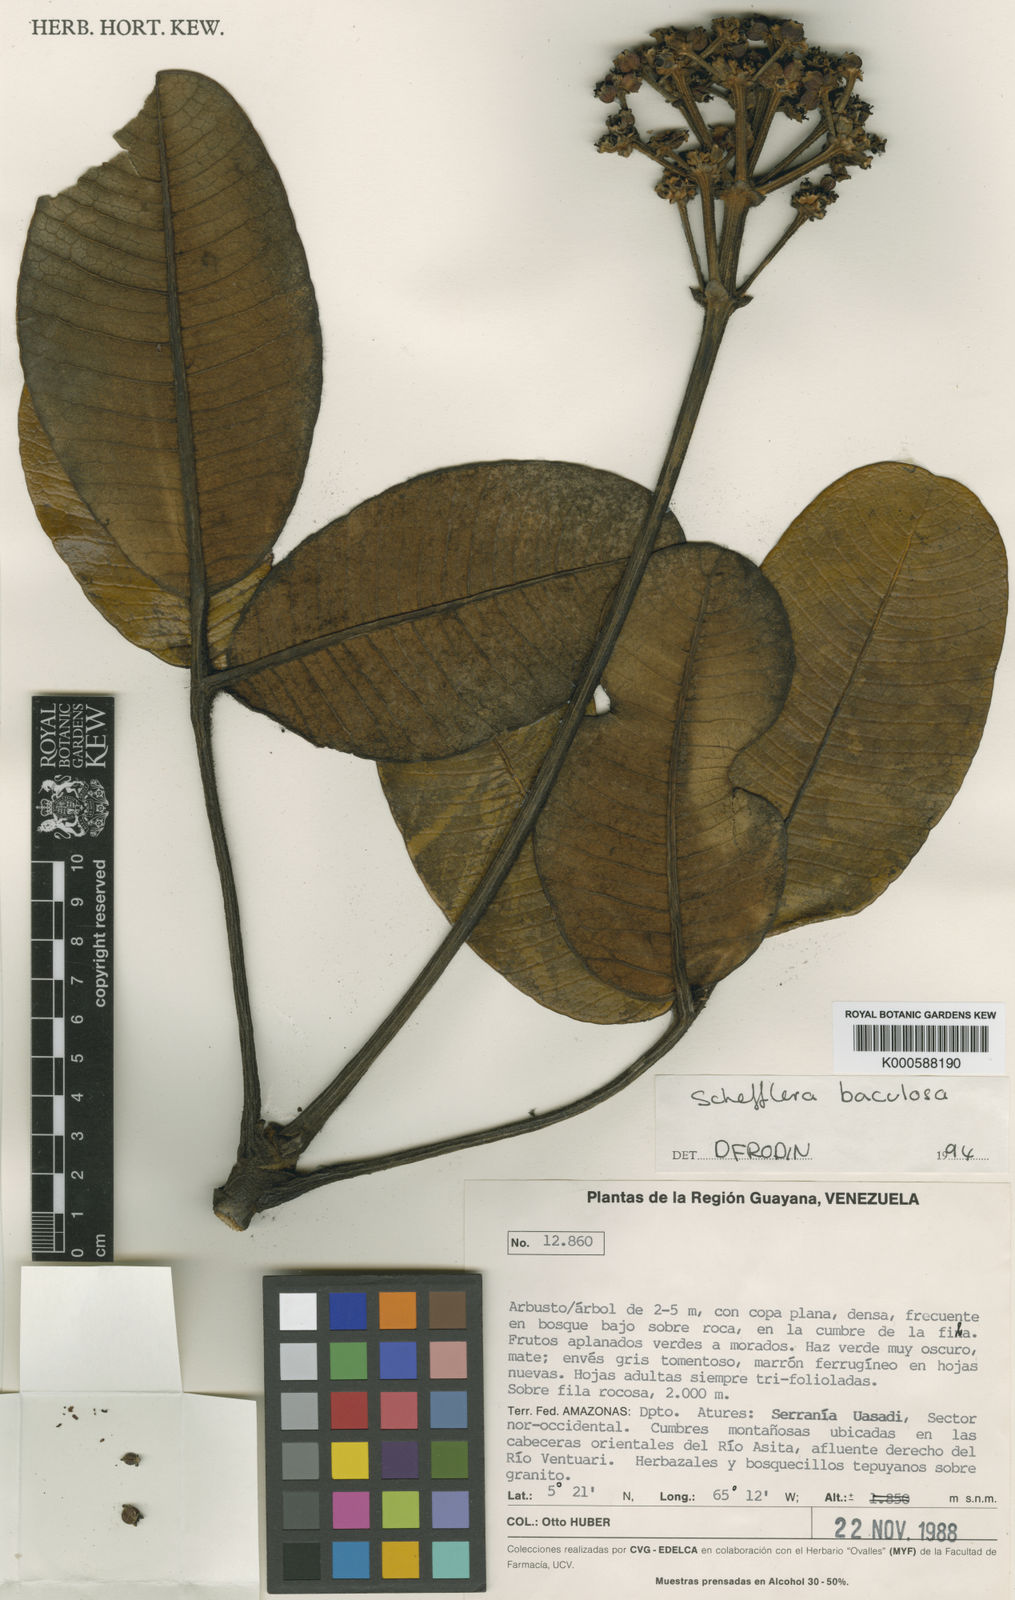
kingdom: Plantae
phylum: Tracheophyta
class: Magnoliopsida
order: Apiales
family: Araliaceae
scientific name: Araliaceae
